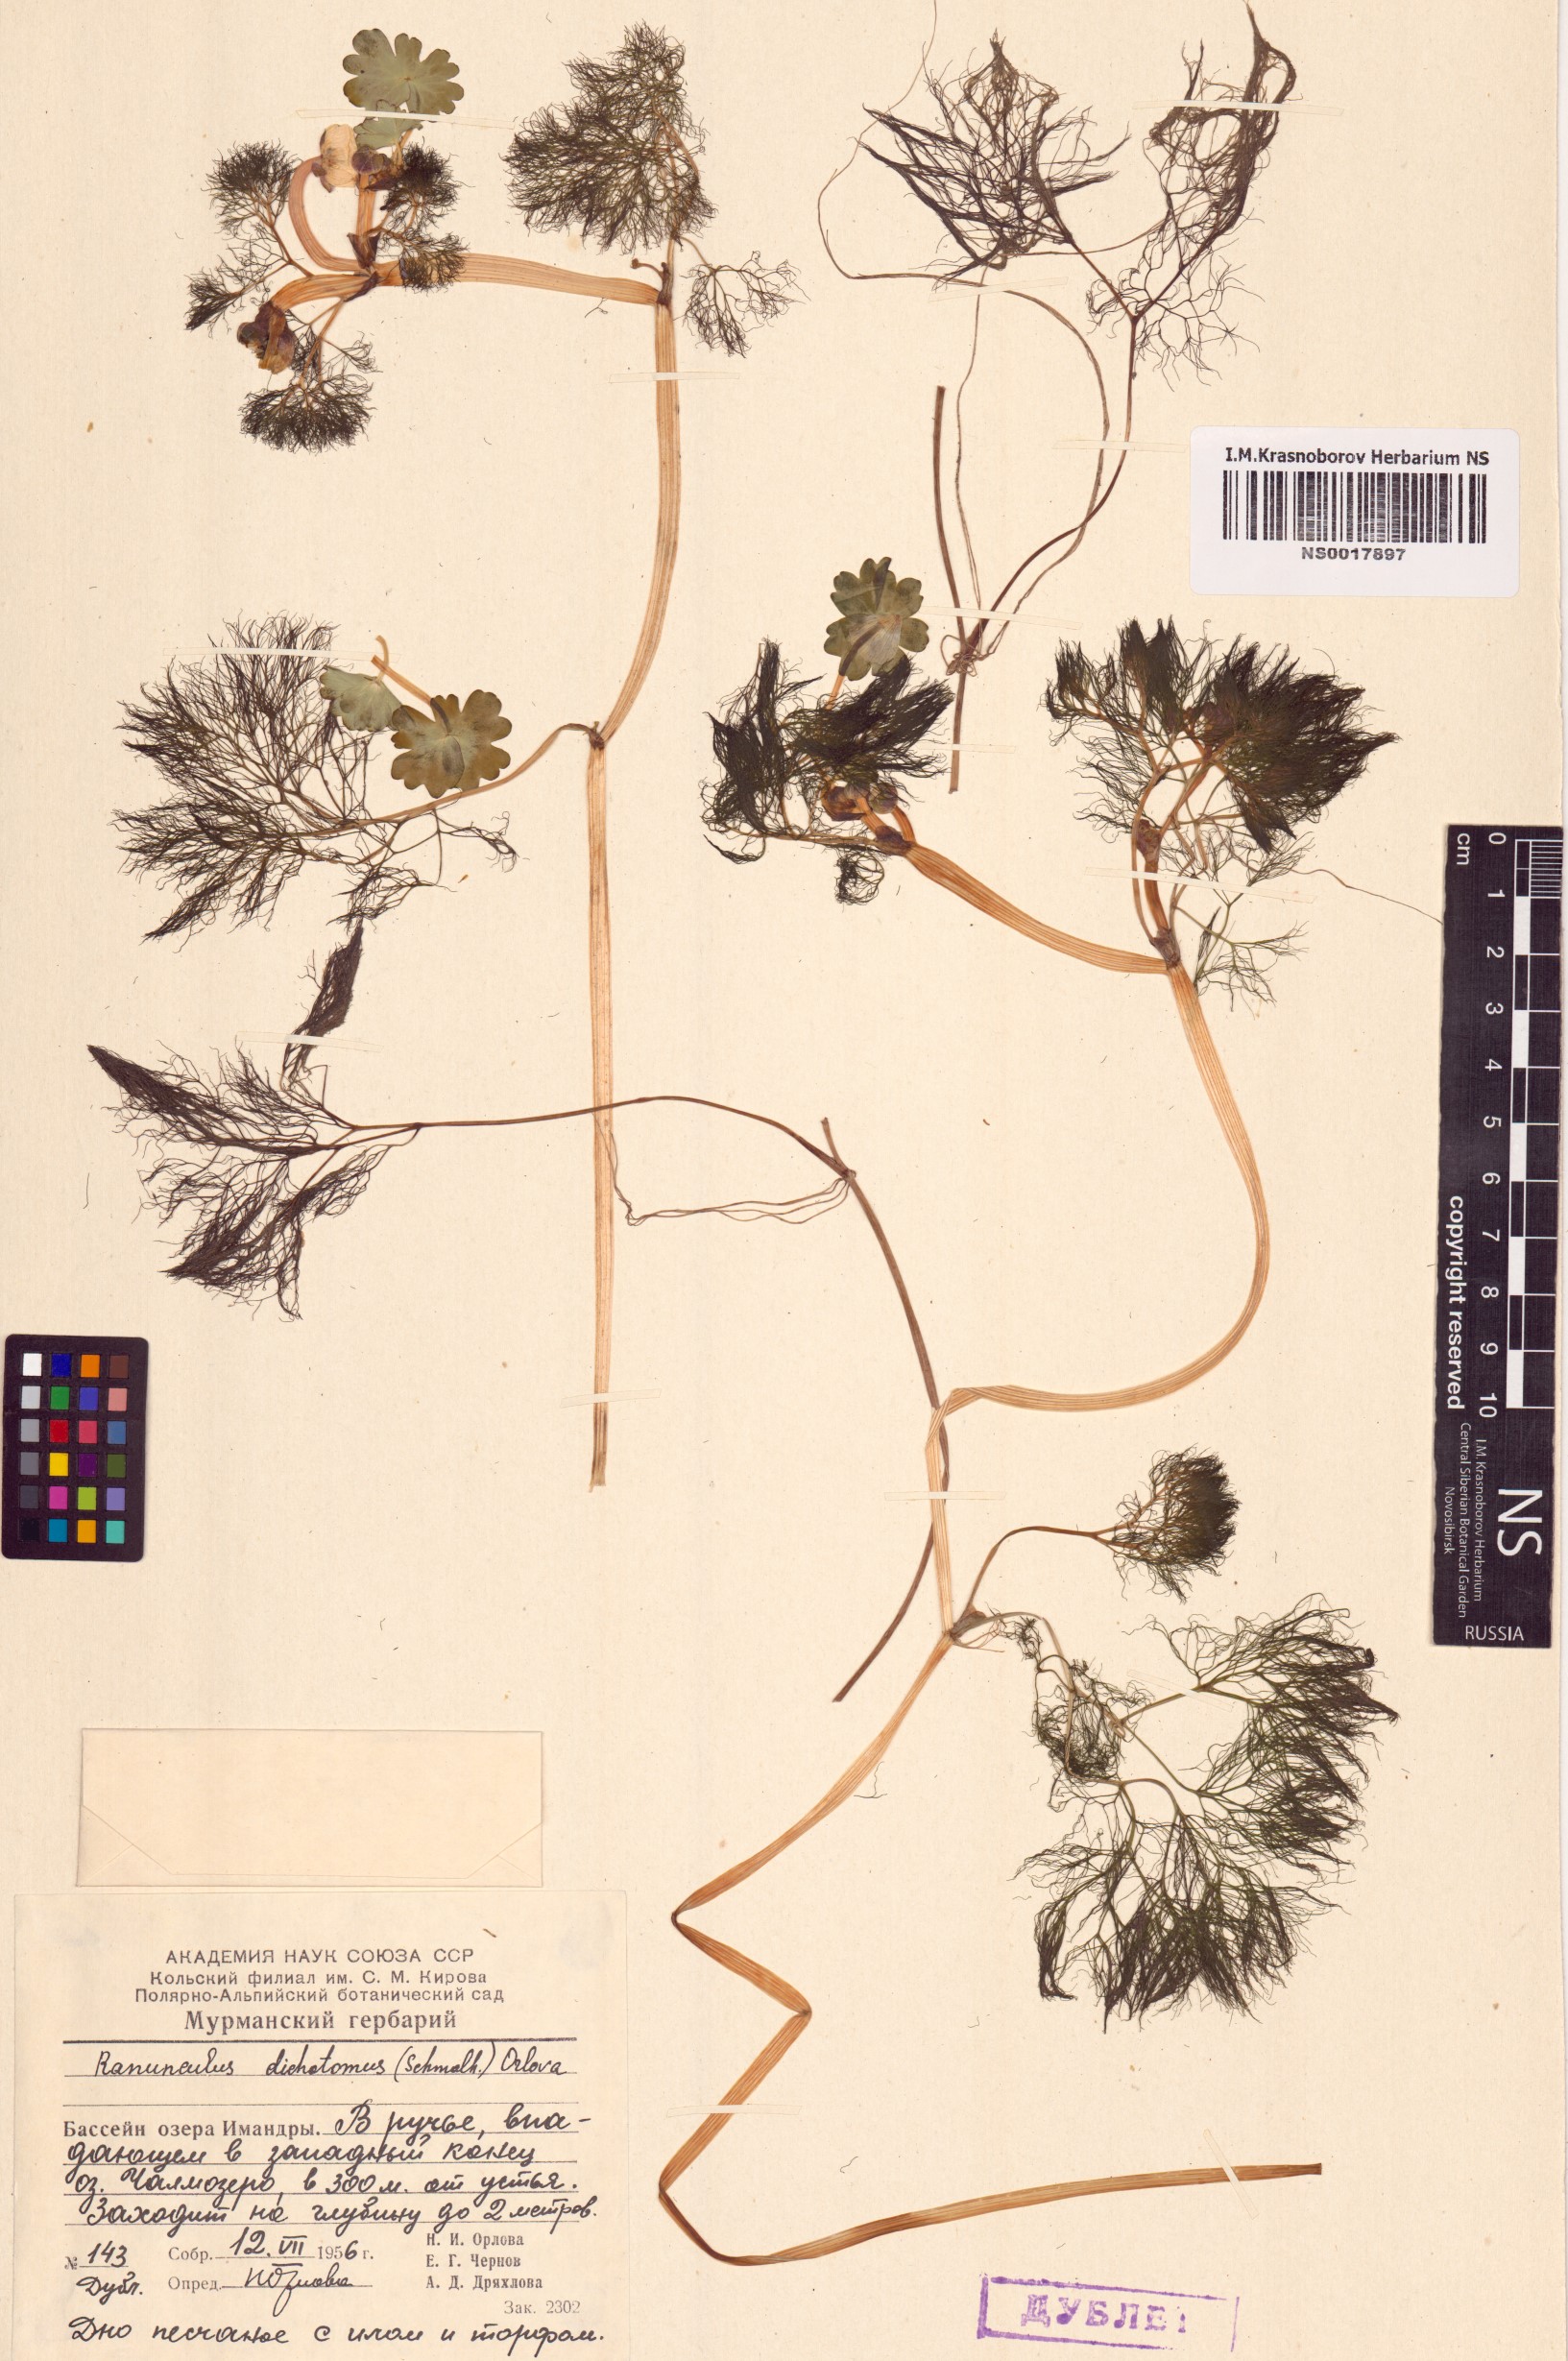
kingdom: Plantae
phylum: Tracheophyta
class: Magnoliopsida
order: Ranunculales
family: Ranunculaceae
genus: Ranunculus
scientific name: Ranunculus schmalhausenii
